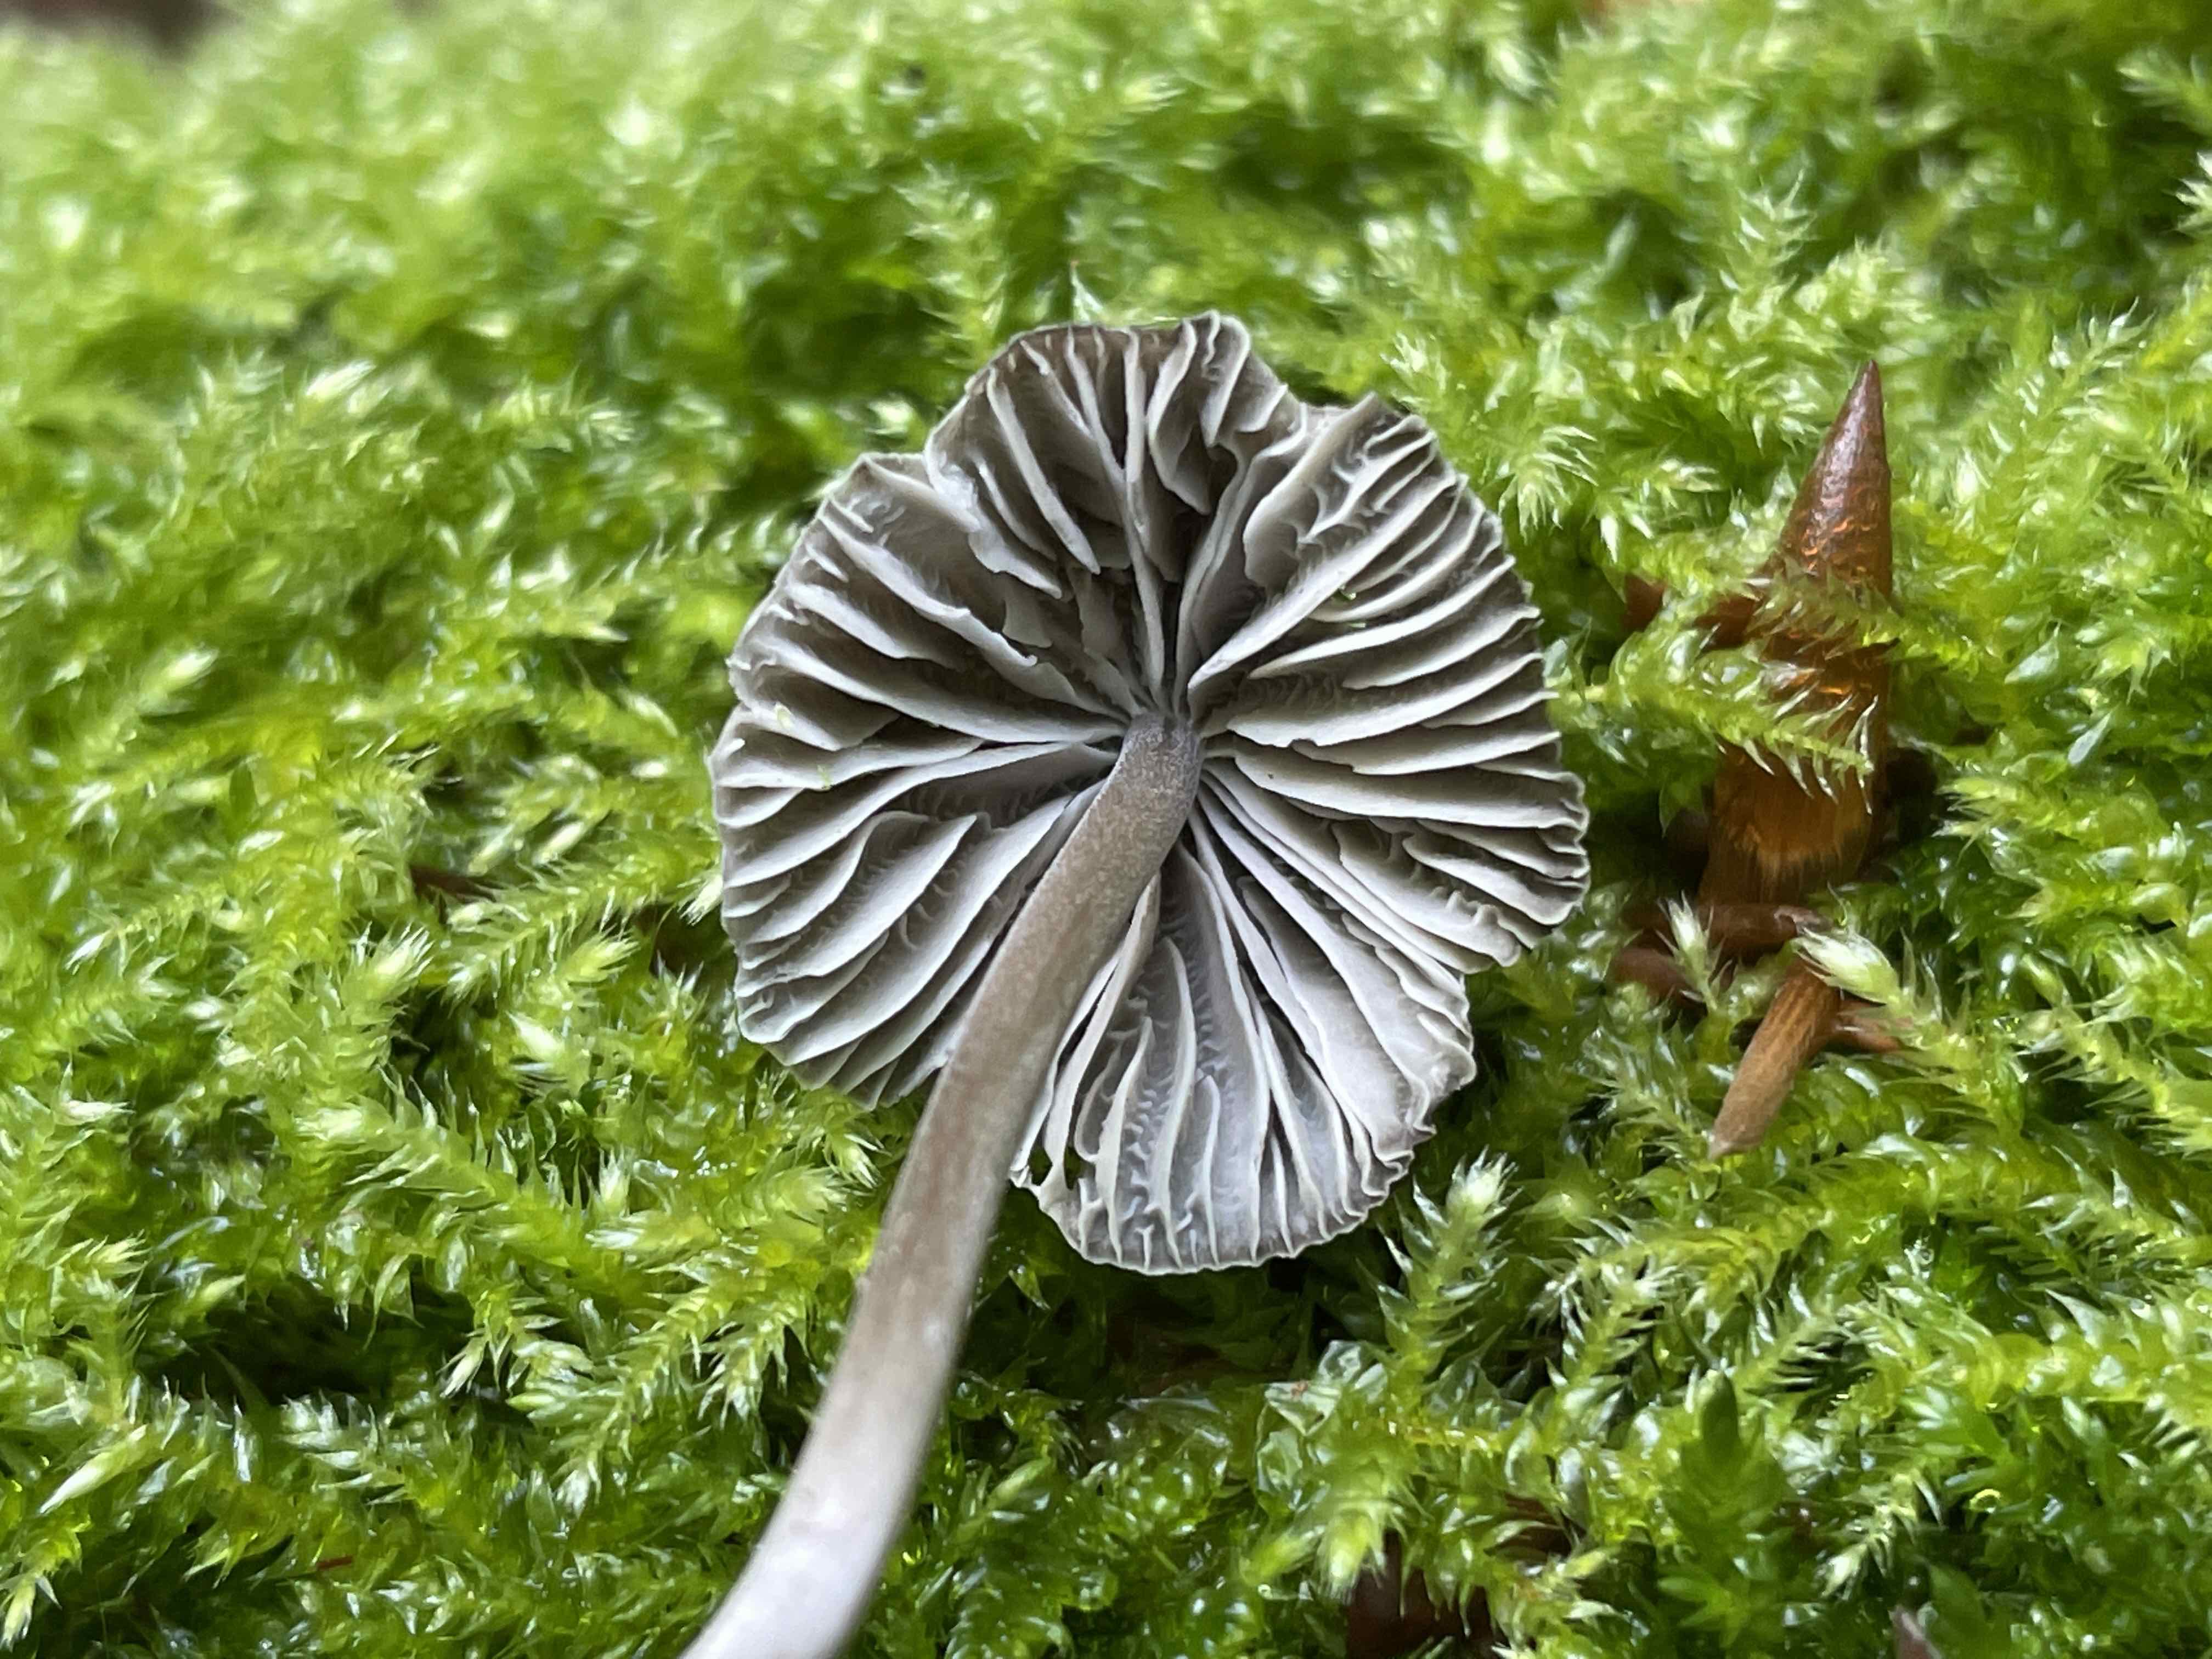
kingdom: Fungi
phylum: Basidiomycota
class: Agaricomycetes
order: Agaricales
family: Mycenaceae
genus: Mycena
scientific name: Mycena
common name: huesvamp
